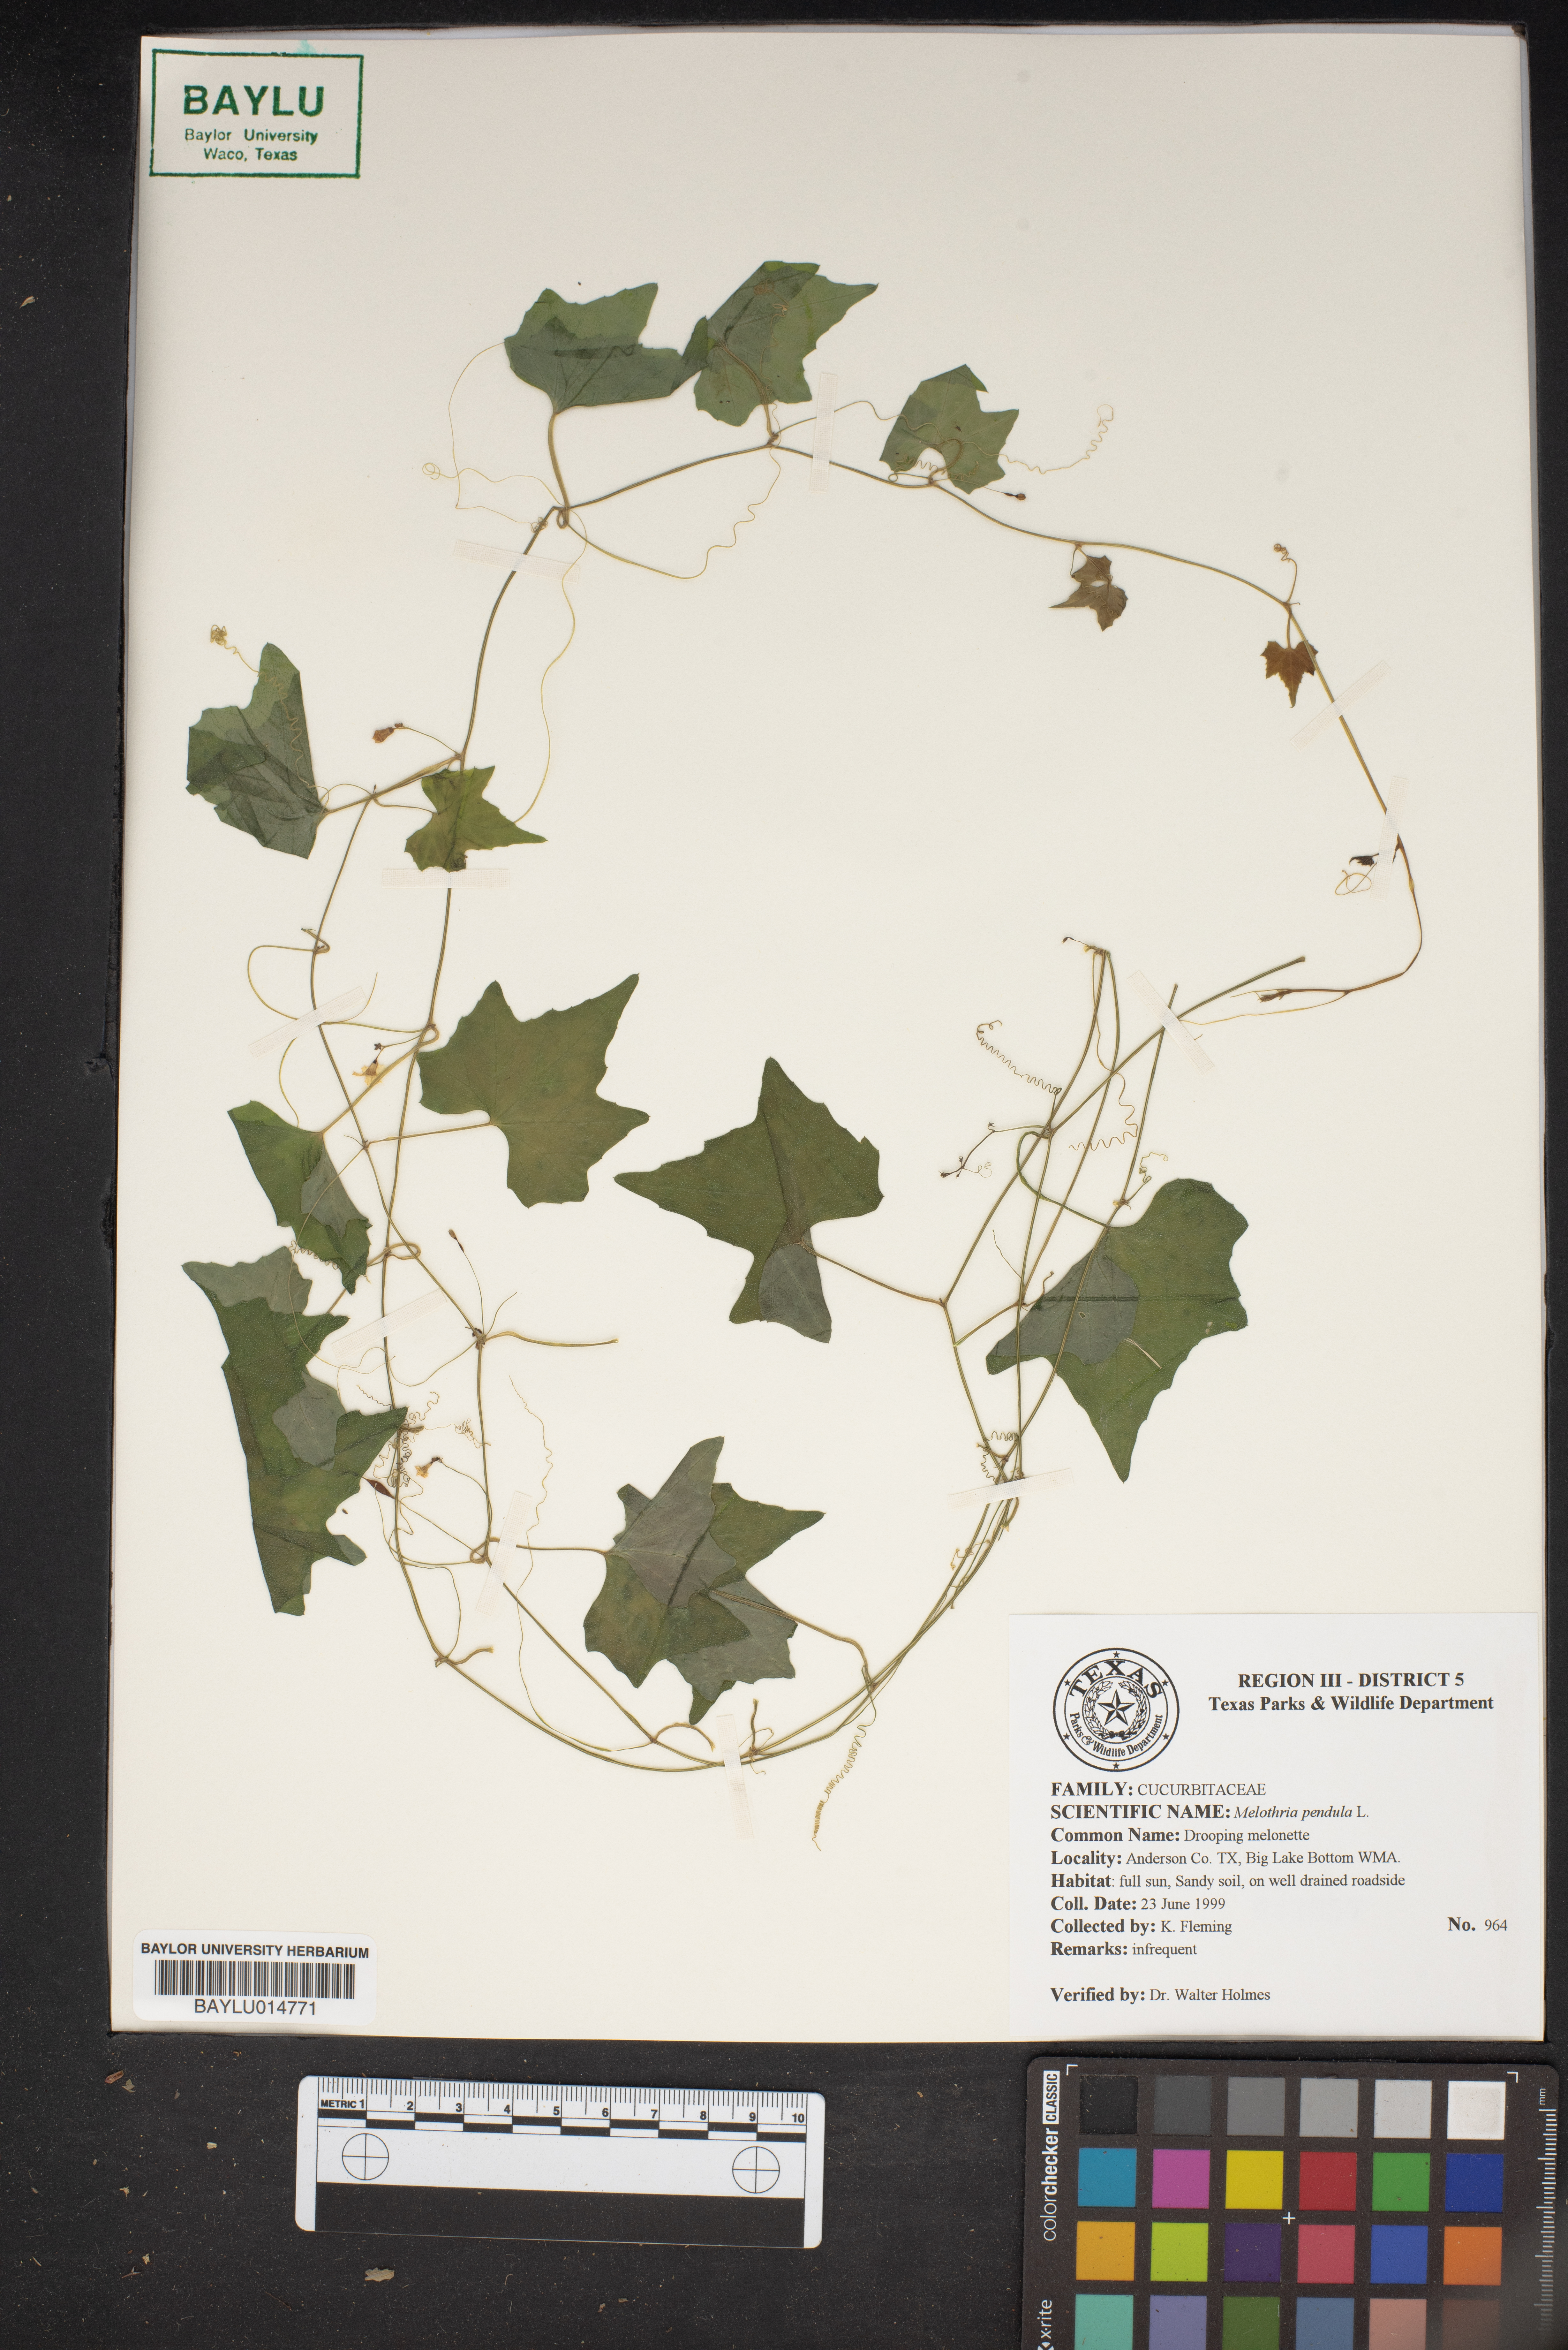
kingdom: Plantae
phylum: Tracheophyta
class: Magnoliopsida
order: Cucurbitales
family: Cucurbitaceae
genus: Melothria
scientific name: Melothria pendula
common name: Creeping-cucumber
